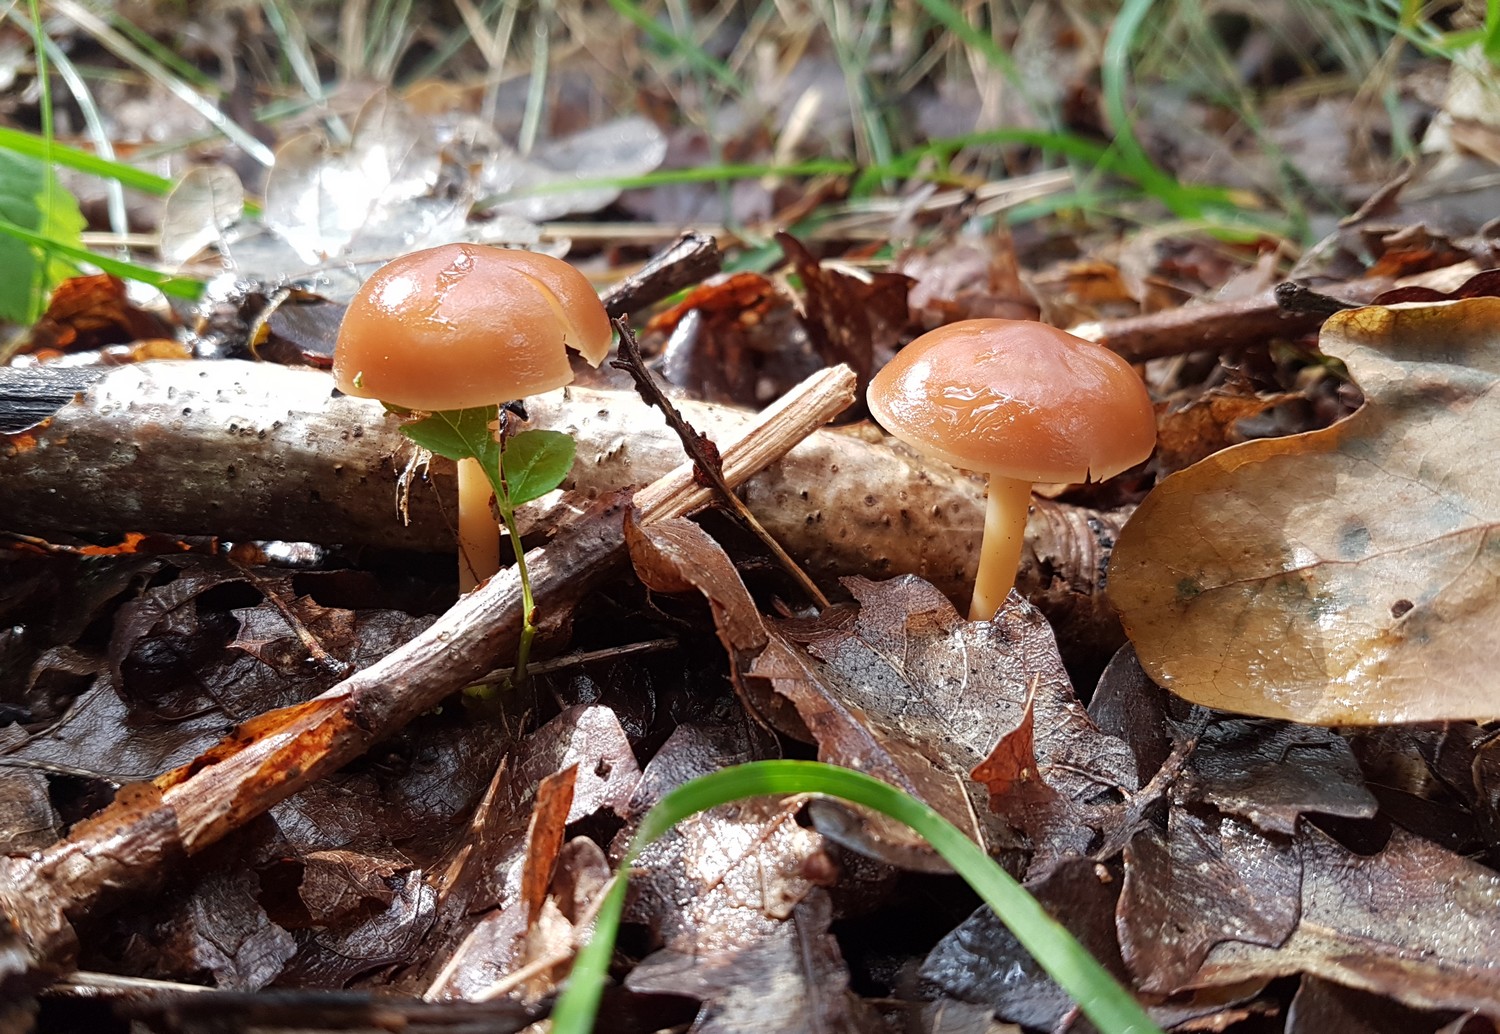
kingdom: Fungi
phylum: Basidiomycota
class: Agaricomycetes
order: Agaricales
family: Omphalotaceae
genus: Gymnopus
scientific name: Gymnopus dryophilus
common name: løv-fladhat
